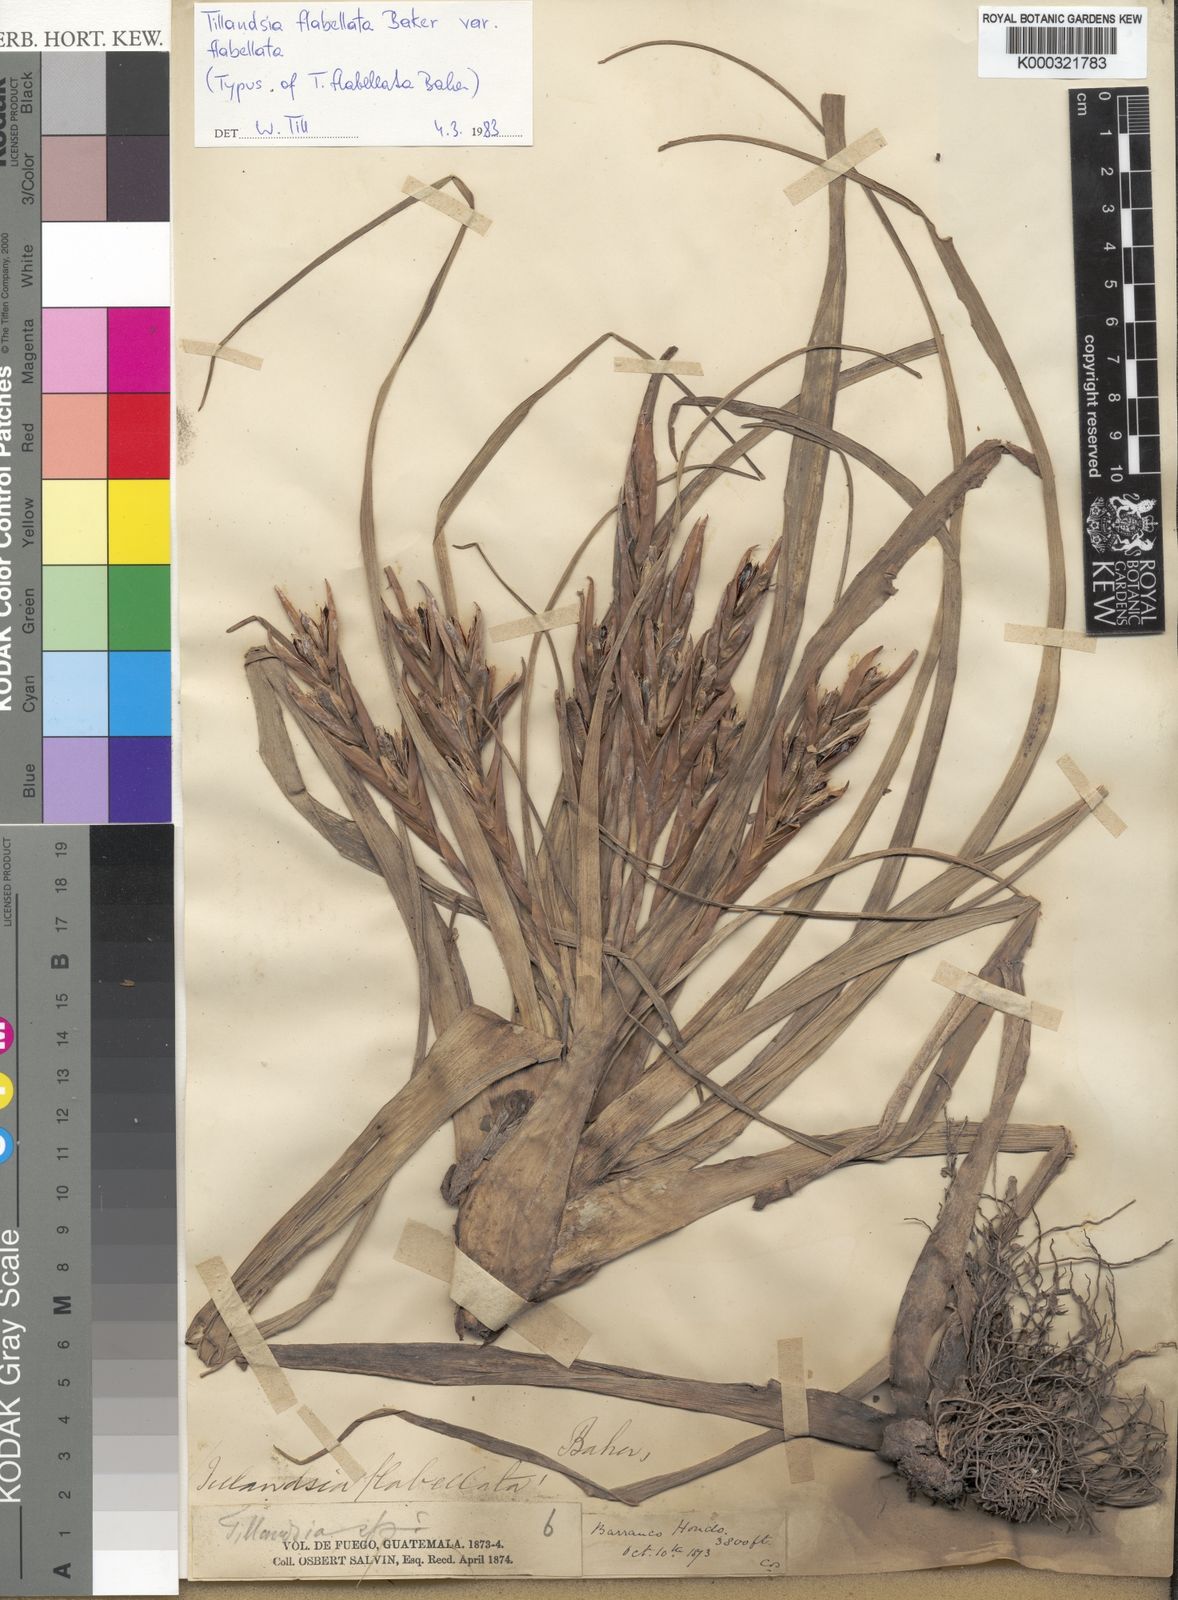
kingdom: Plantae
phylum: Tracheophyta
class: Liliopsida
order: Poales
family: Bromeliaceae
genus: Tillandsia
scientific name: Tillandsia flabellata
